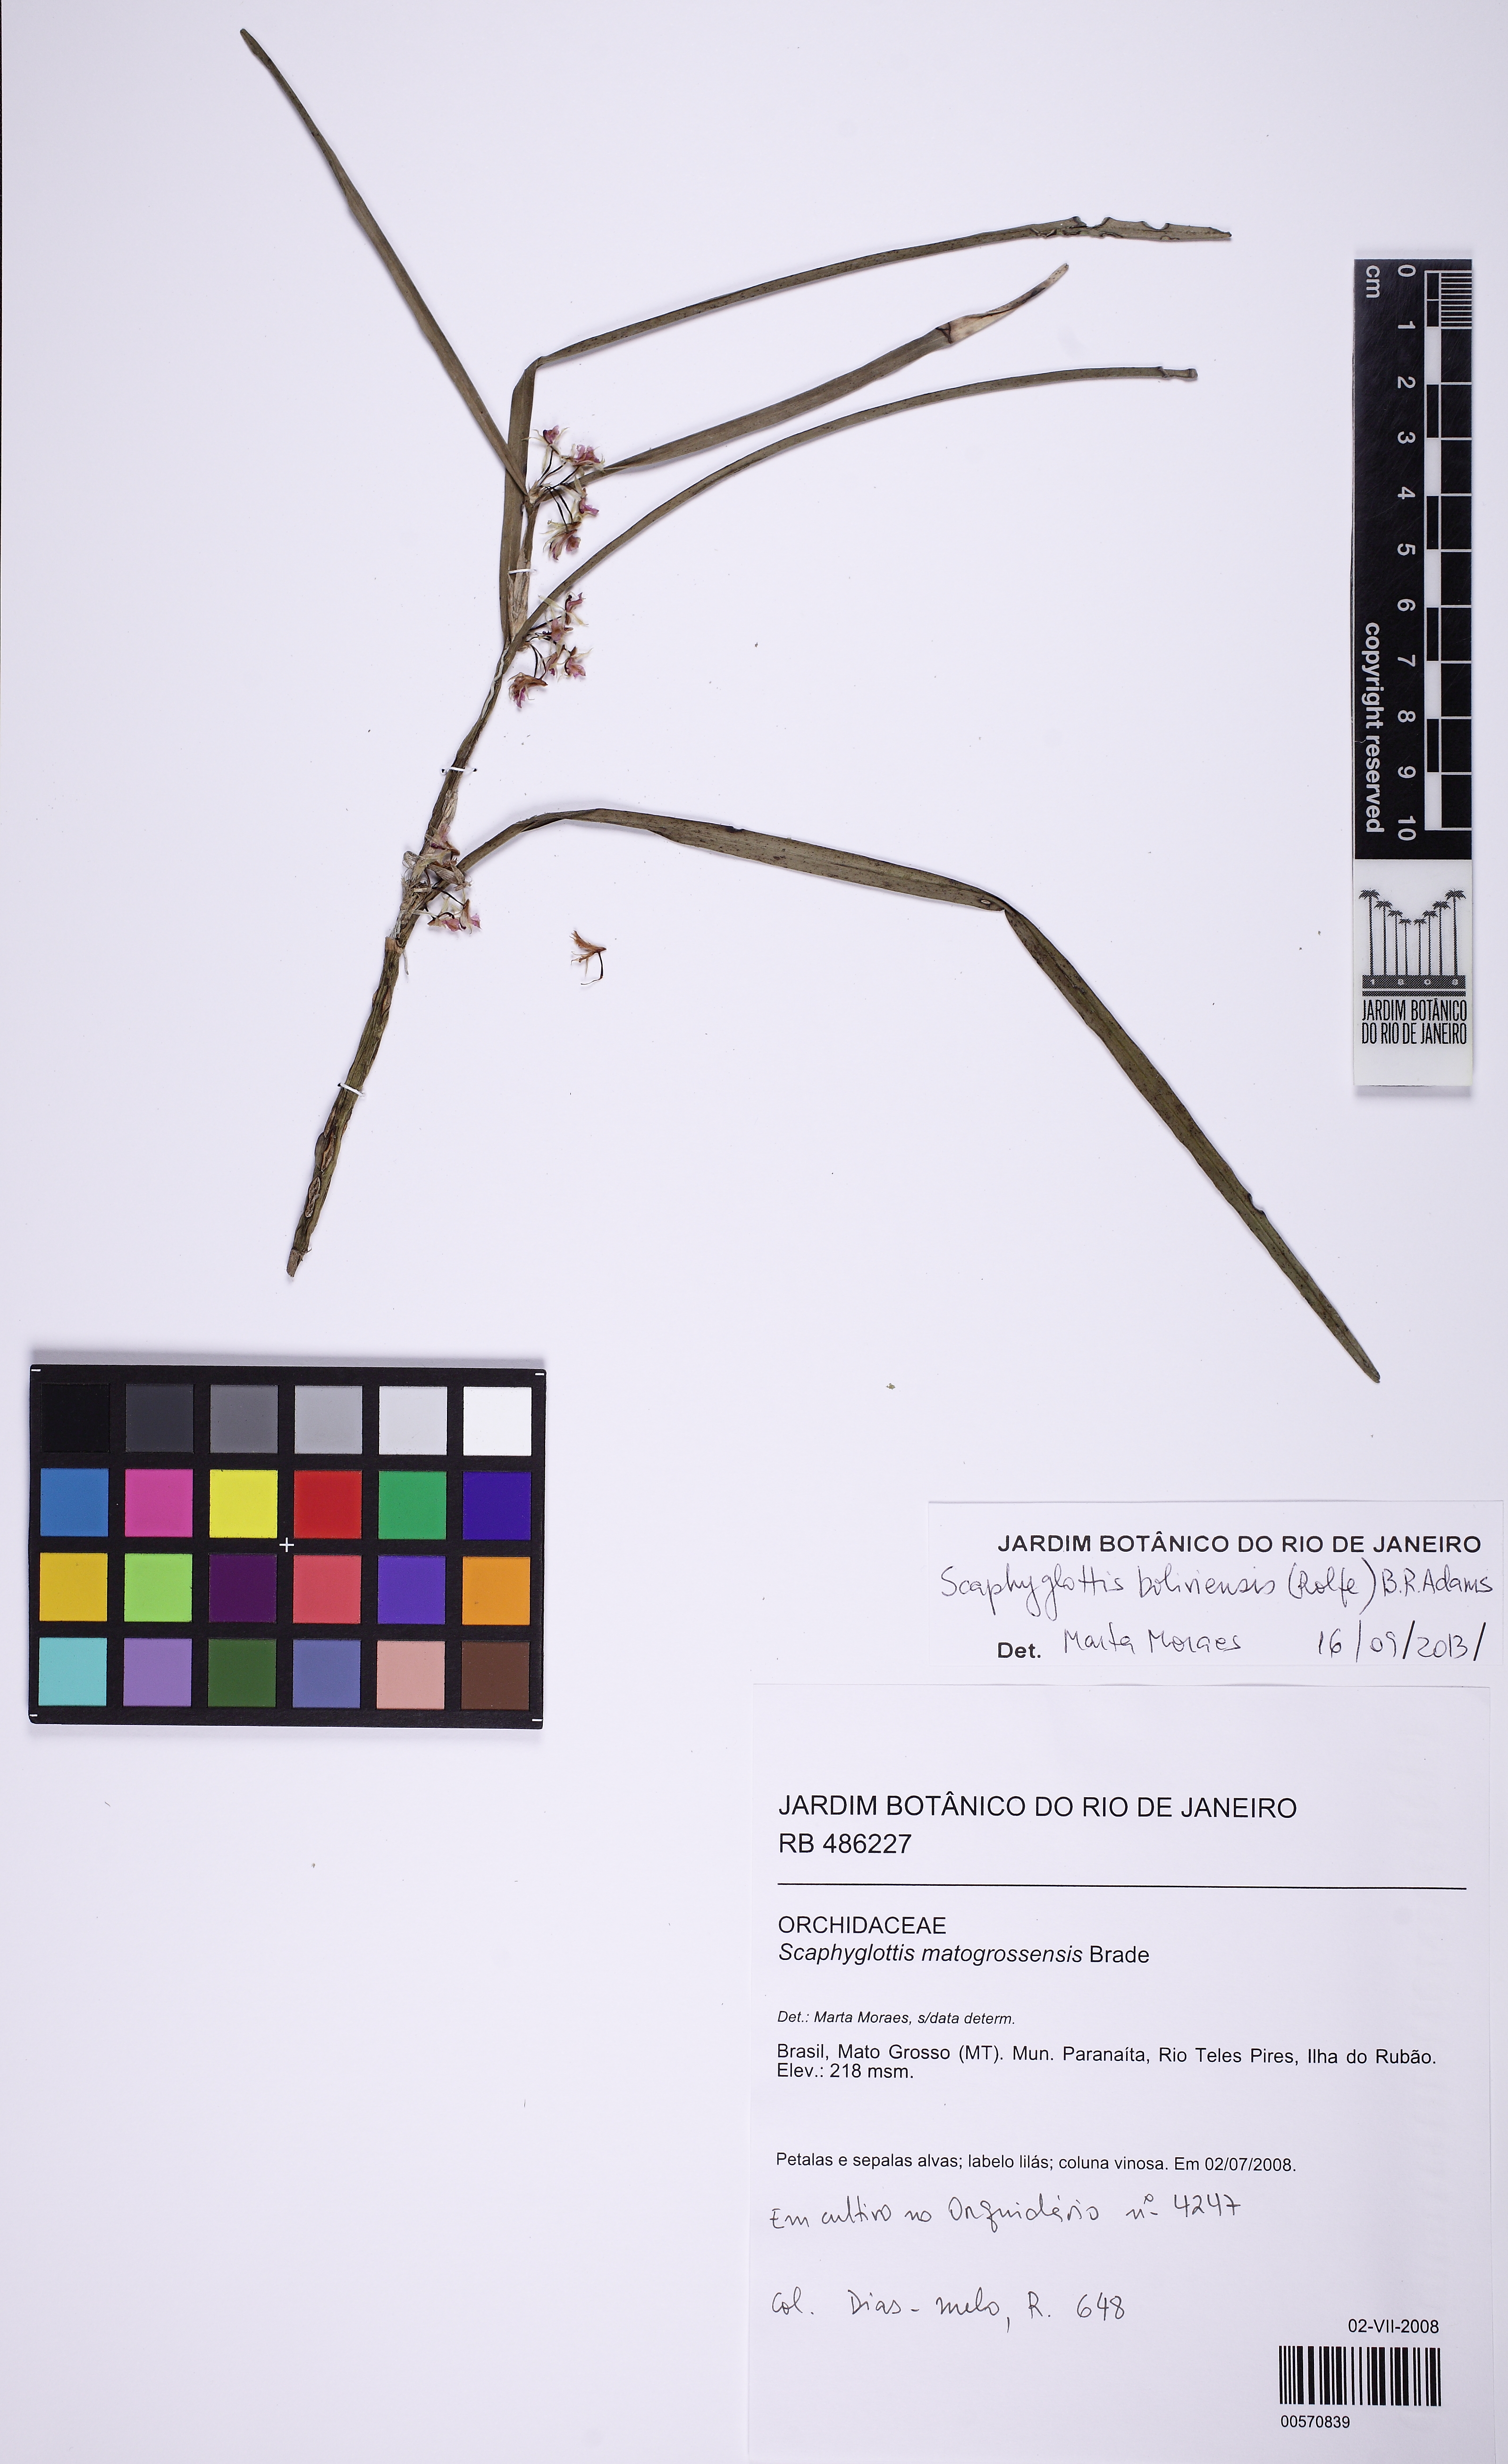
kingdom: Plantae
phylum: Tracheophyta
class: Liliopsida
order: Asparagales
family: Orchidaceae
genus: Scaphyglottis
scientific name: Scaphyglottis boliviensis
